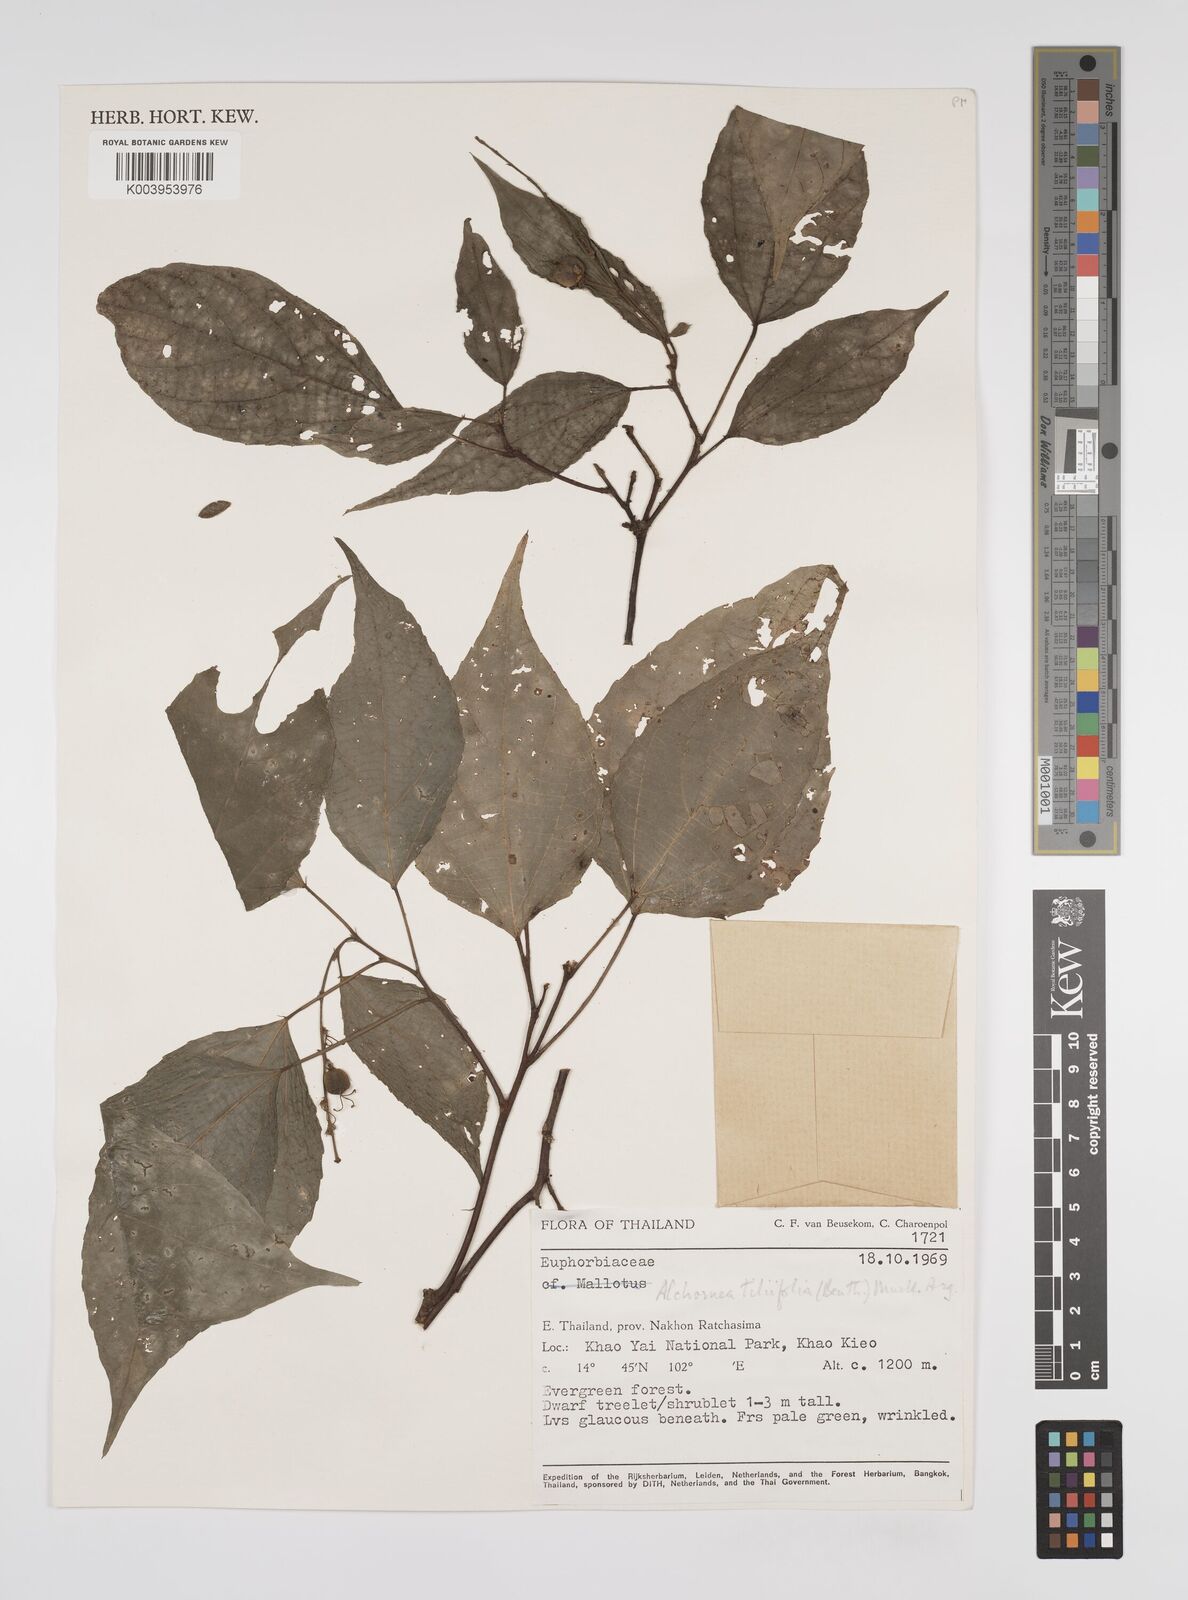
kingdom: Plantae
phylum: Tracheophyta
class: Magnoliopsida
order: Malpighiales
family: Euphorbiaceae
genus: Alchornea
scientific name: Alchornea tiliifolia
